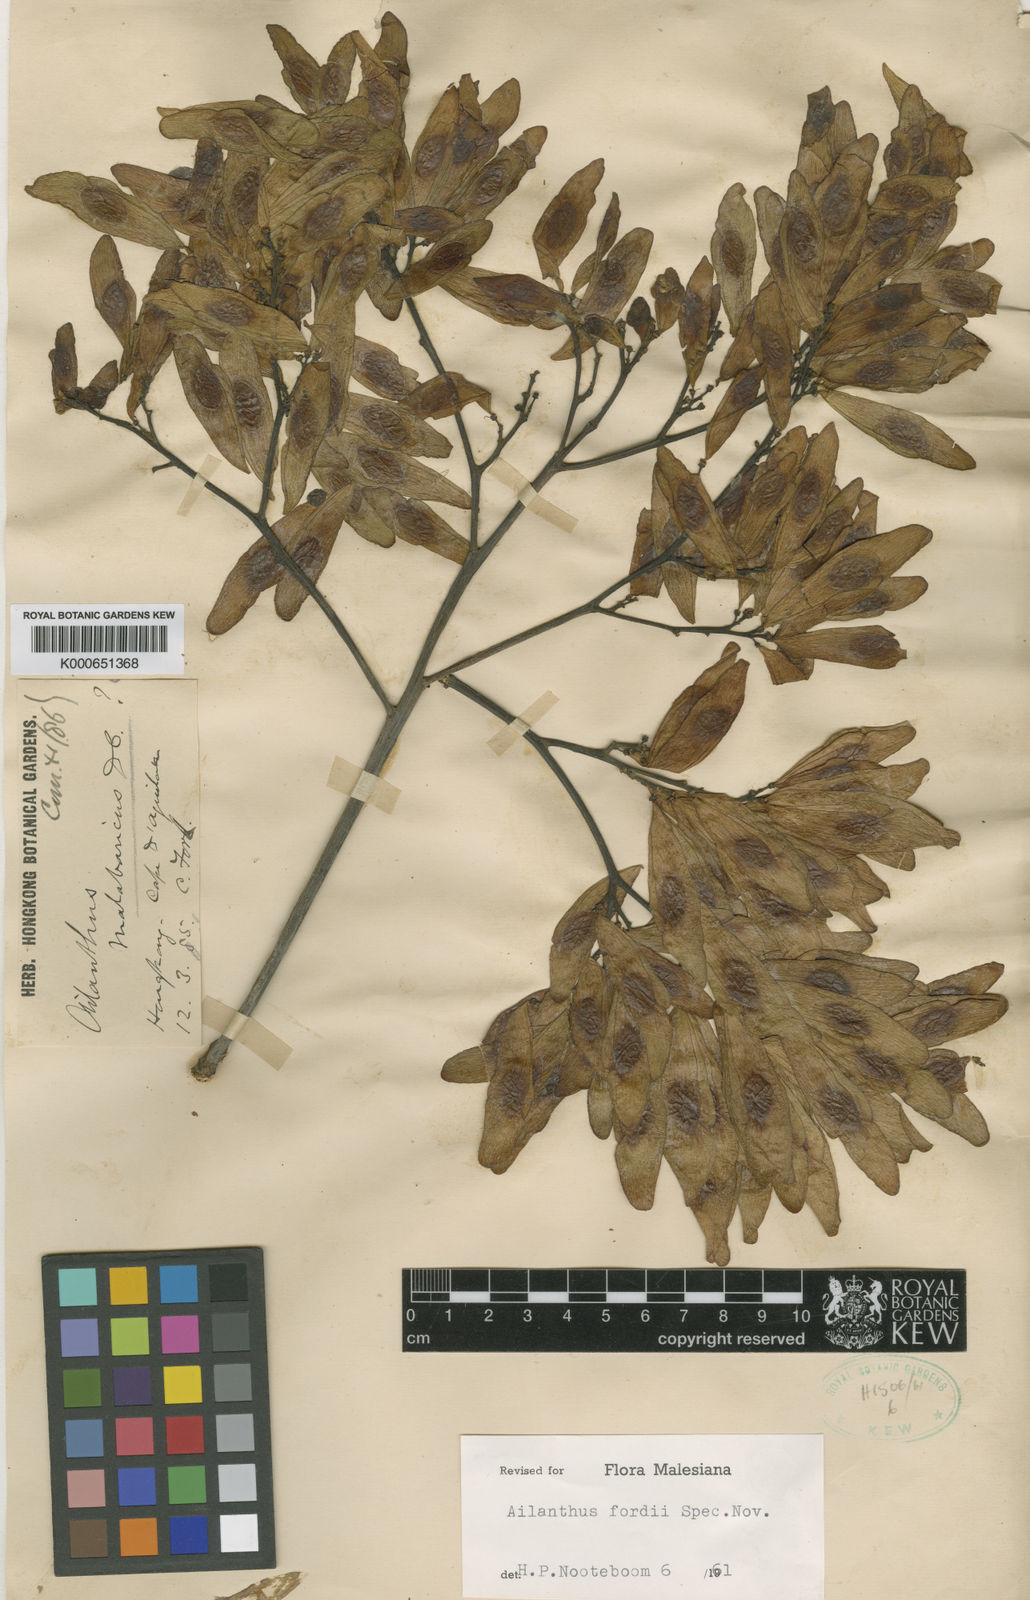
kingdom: Plantae
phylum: Tracheophyta
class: Magnoliopsida
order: Sapindales
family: Simaroubaceae
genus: Ailanthus
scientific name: Ailanthus fordii
